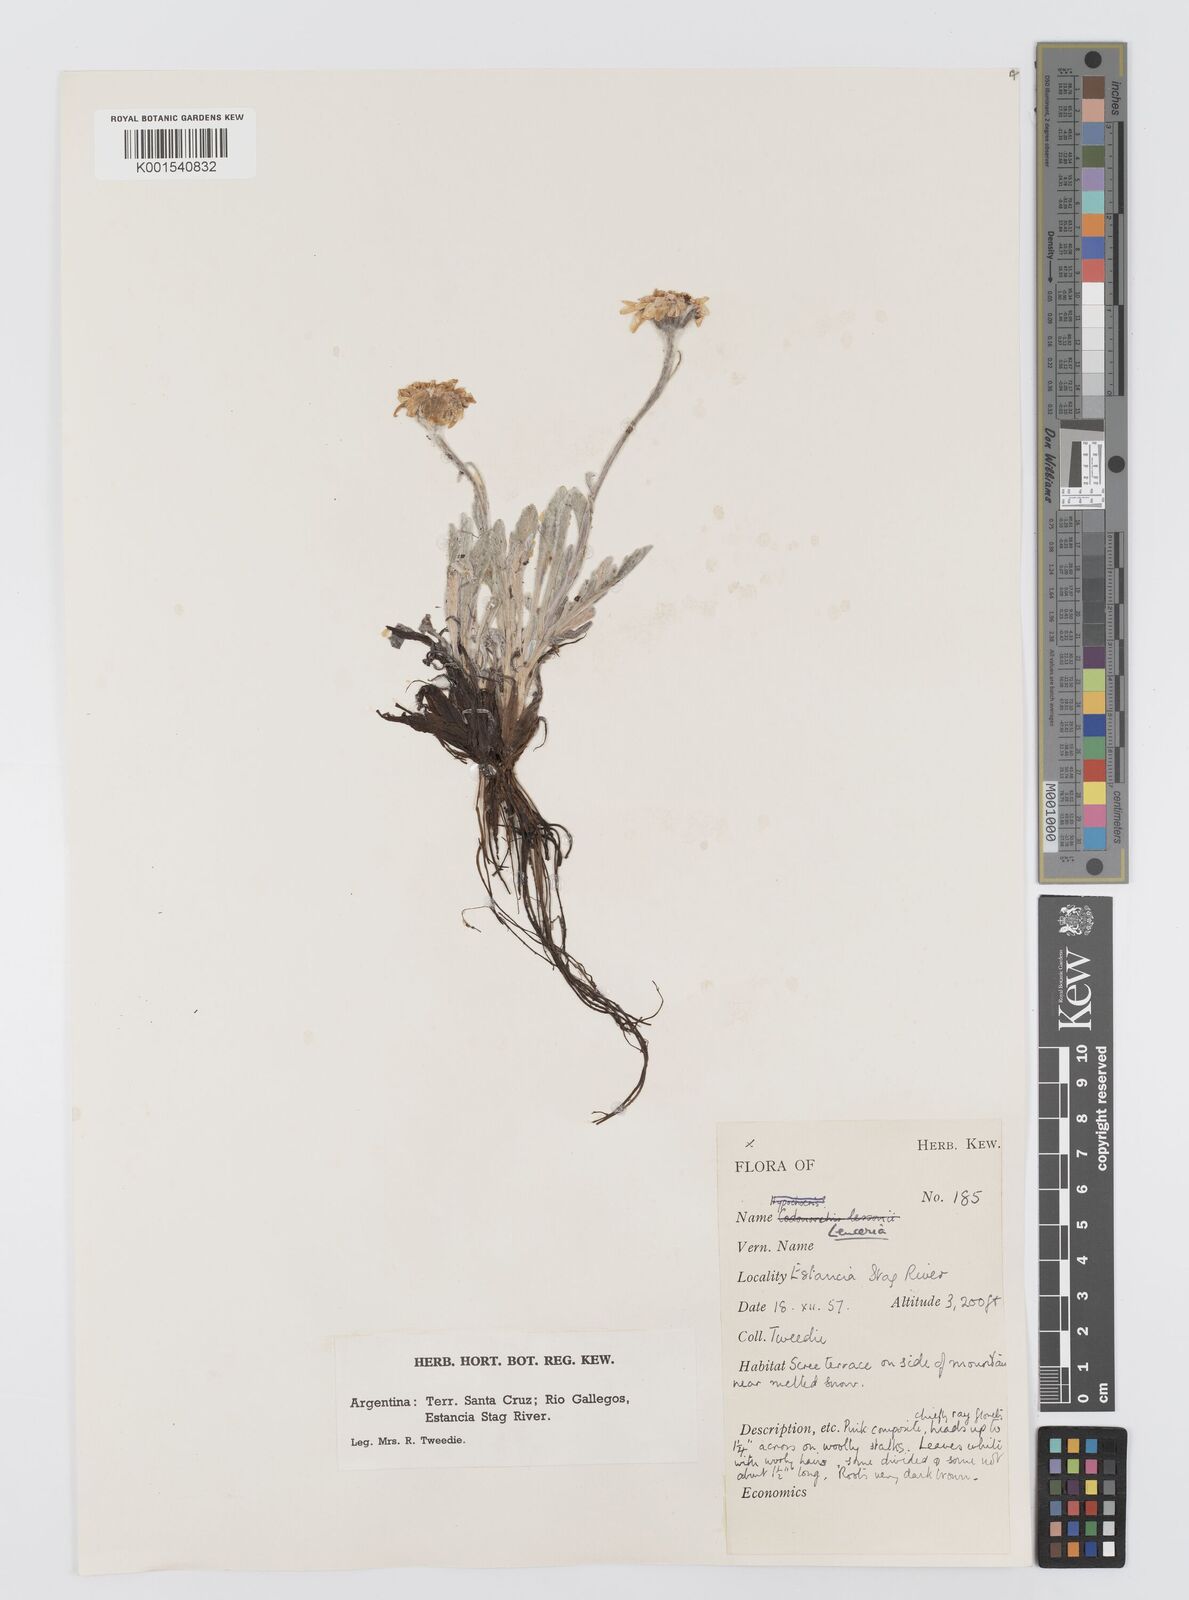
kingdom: Plantae
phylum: Tracheophyta
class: Magnoliopsida
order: Asterales
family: Asteraceae
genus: Leucheria
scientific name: Leucheria hahnii
